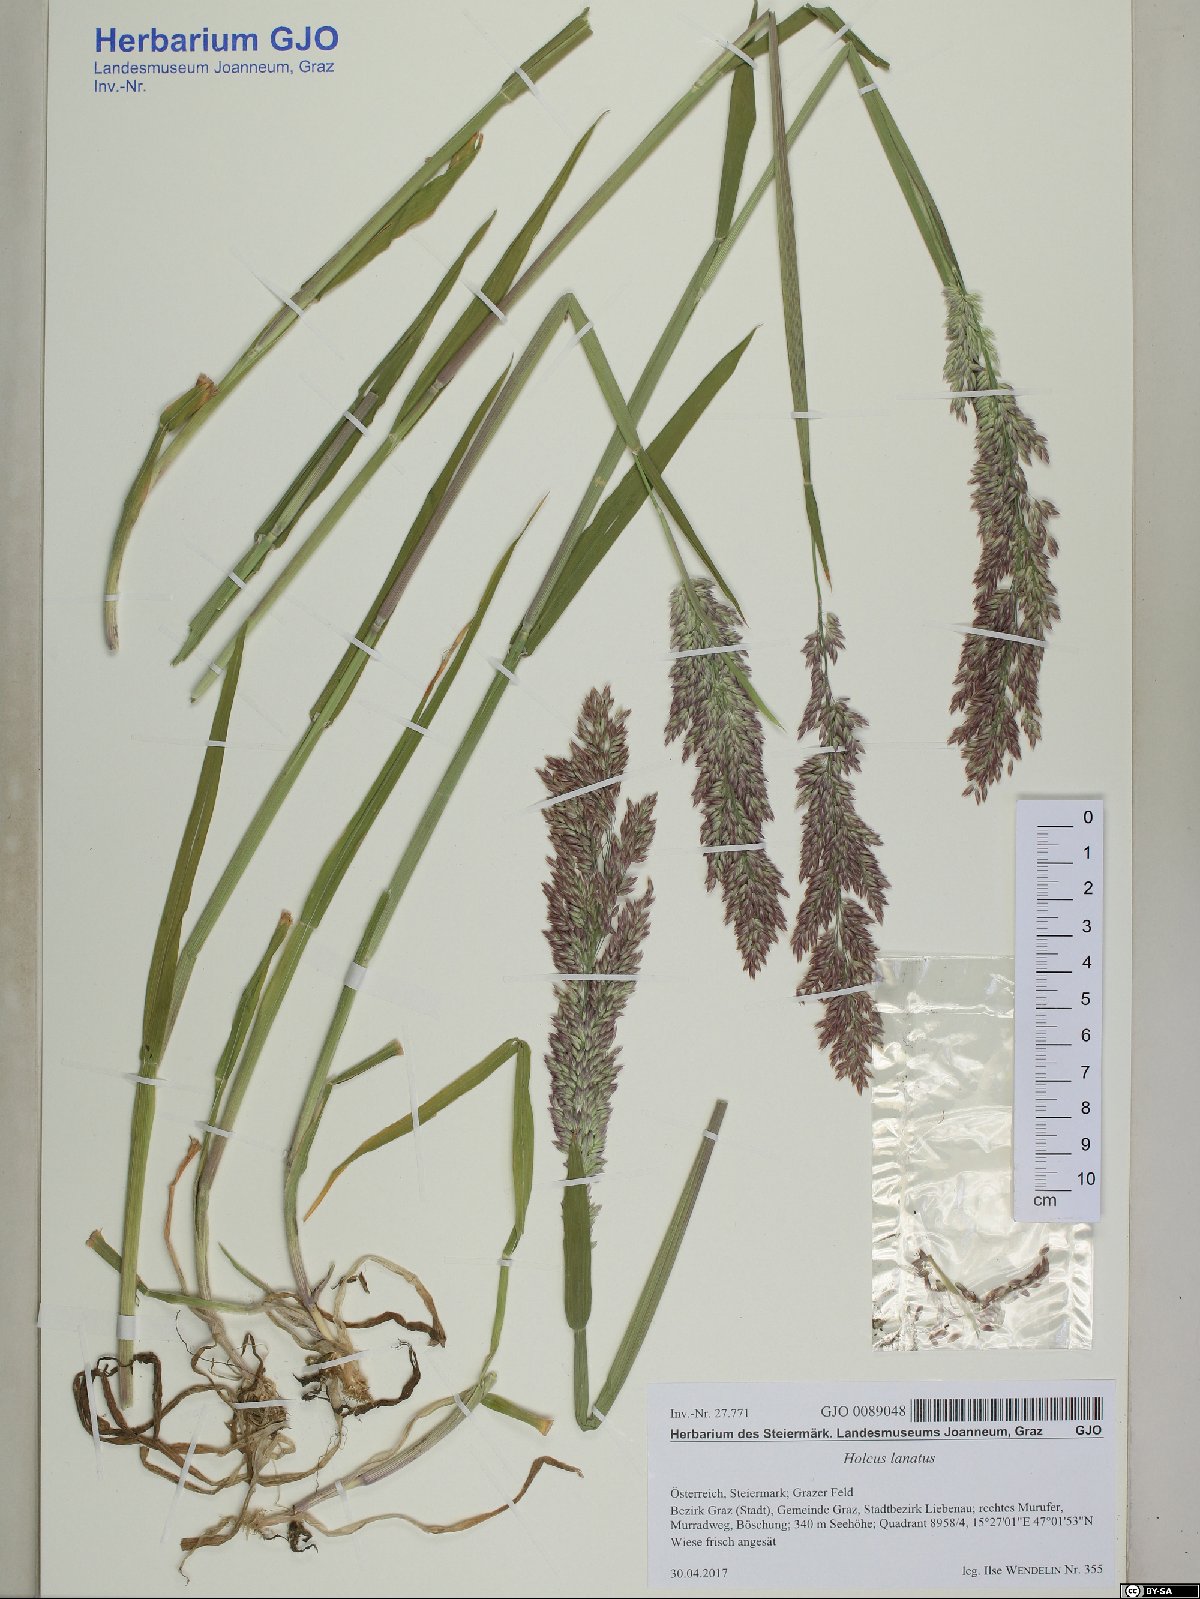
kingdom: Plantae
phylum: Tracheophyta
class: Liliopsida
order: Poales
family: Poaceae
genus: Holcus
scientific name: Holcus lanatus
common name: Yorkshire-fog
